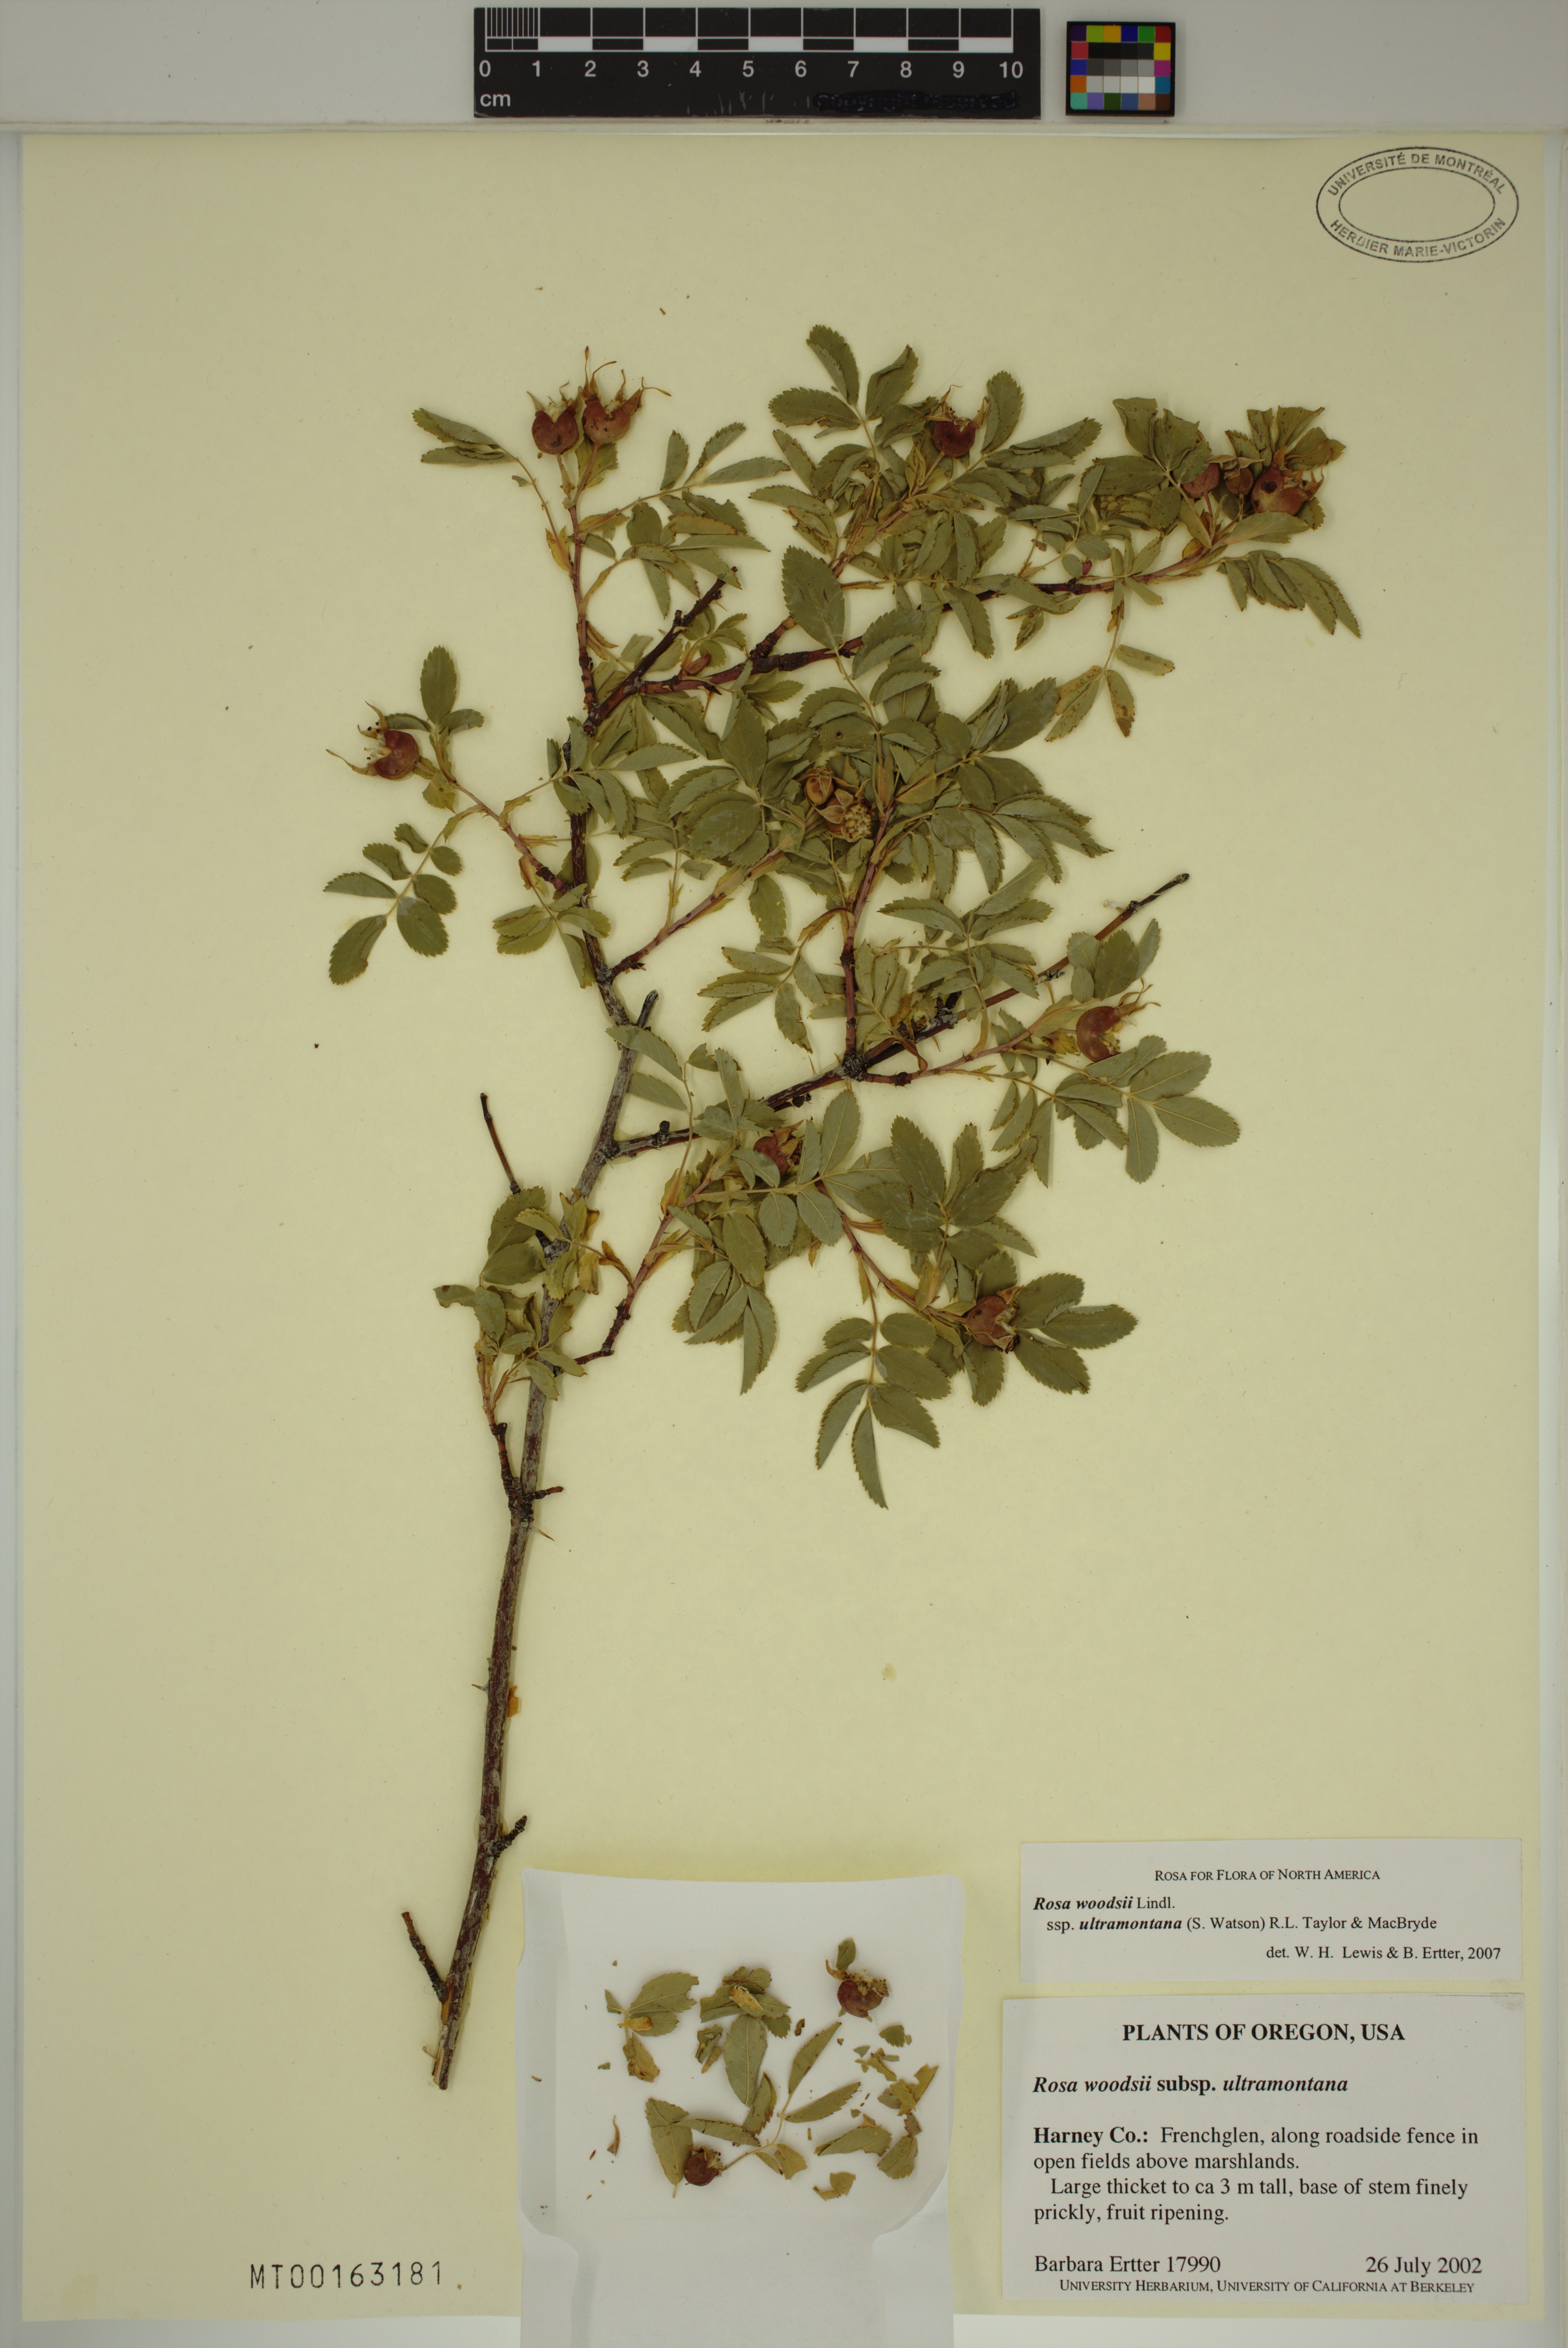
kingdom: Plantae
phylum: Tracheophyta
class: Magnoliopsida
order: Rosales
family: Rosaceae
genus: Rosa
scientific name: Rosa woodsii
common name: Woods's rose
